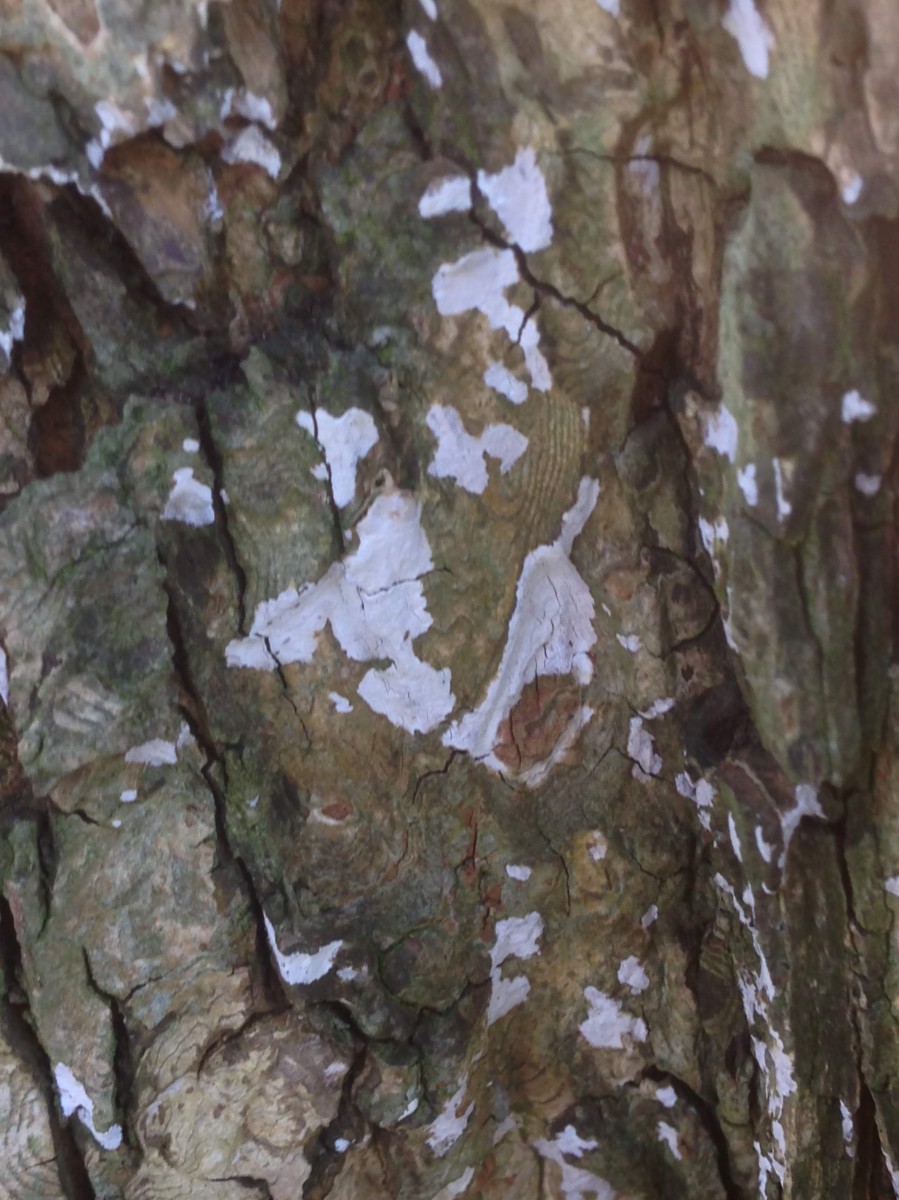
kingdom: Fungi
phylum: Basidiomycota
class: Agaricomycetes
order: Agaricales
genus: Dendrothele
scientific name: Dendrothele acerina
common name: navr-kalkplet
